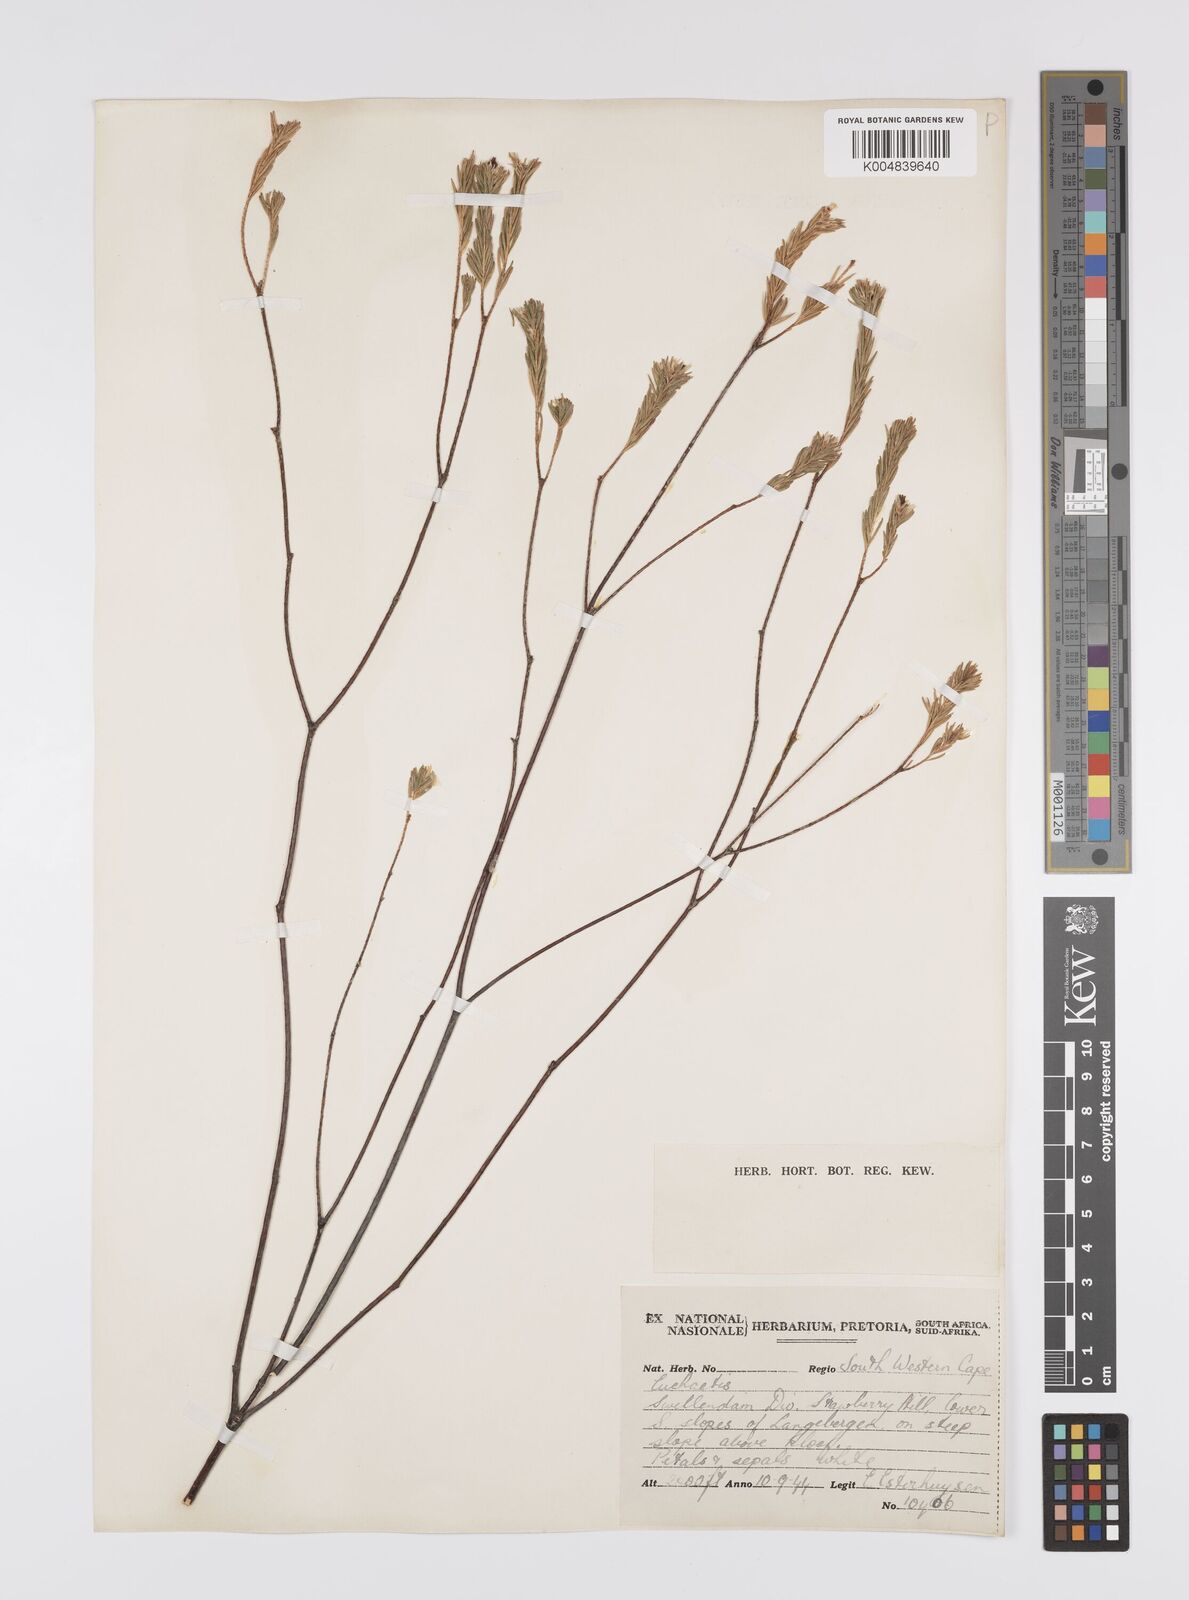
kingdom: Plantae
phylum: Tracheophyta
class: Magnoliopsida
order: Sapindales
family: Rutaceae
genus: Euchaetis
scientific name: Euchaetis avisylvana
